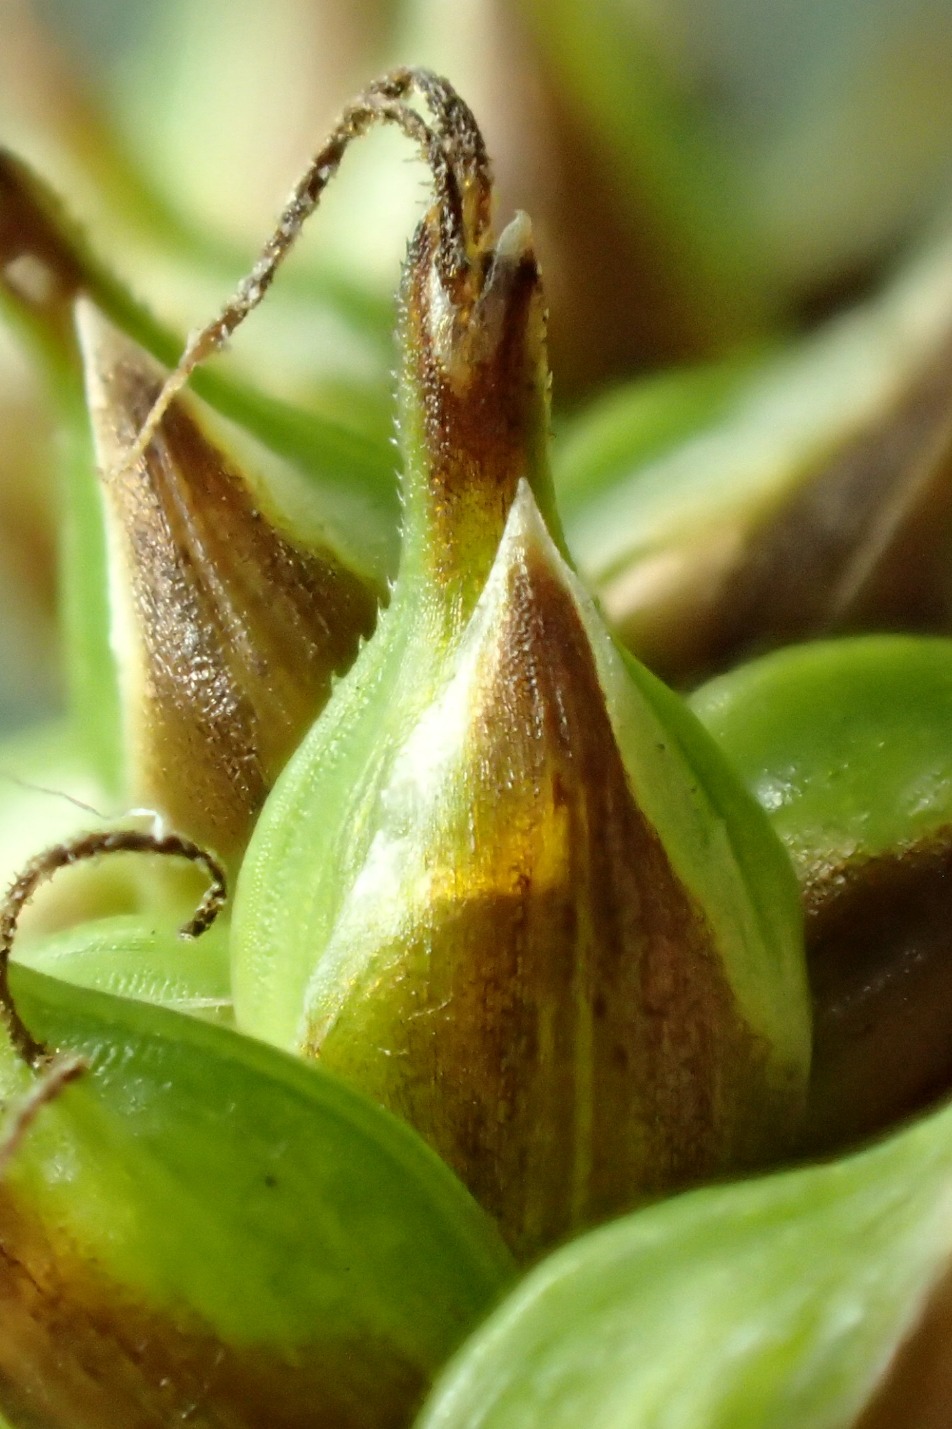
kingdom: Plantae
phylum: Tracheophyta
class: Liliopsida
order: Poales
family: Cyperaceae
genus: Carex
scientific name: Carex hostiana
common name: Skede-star
